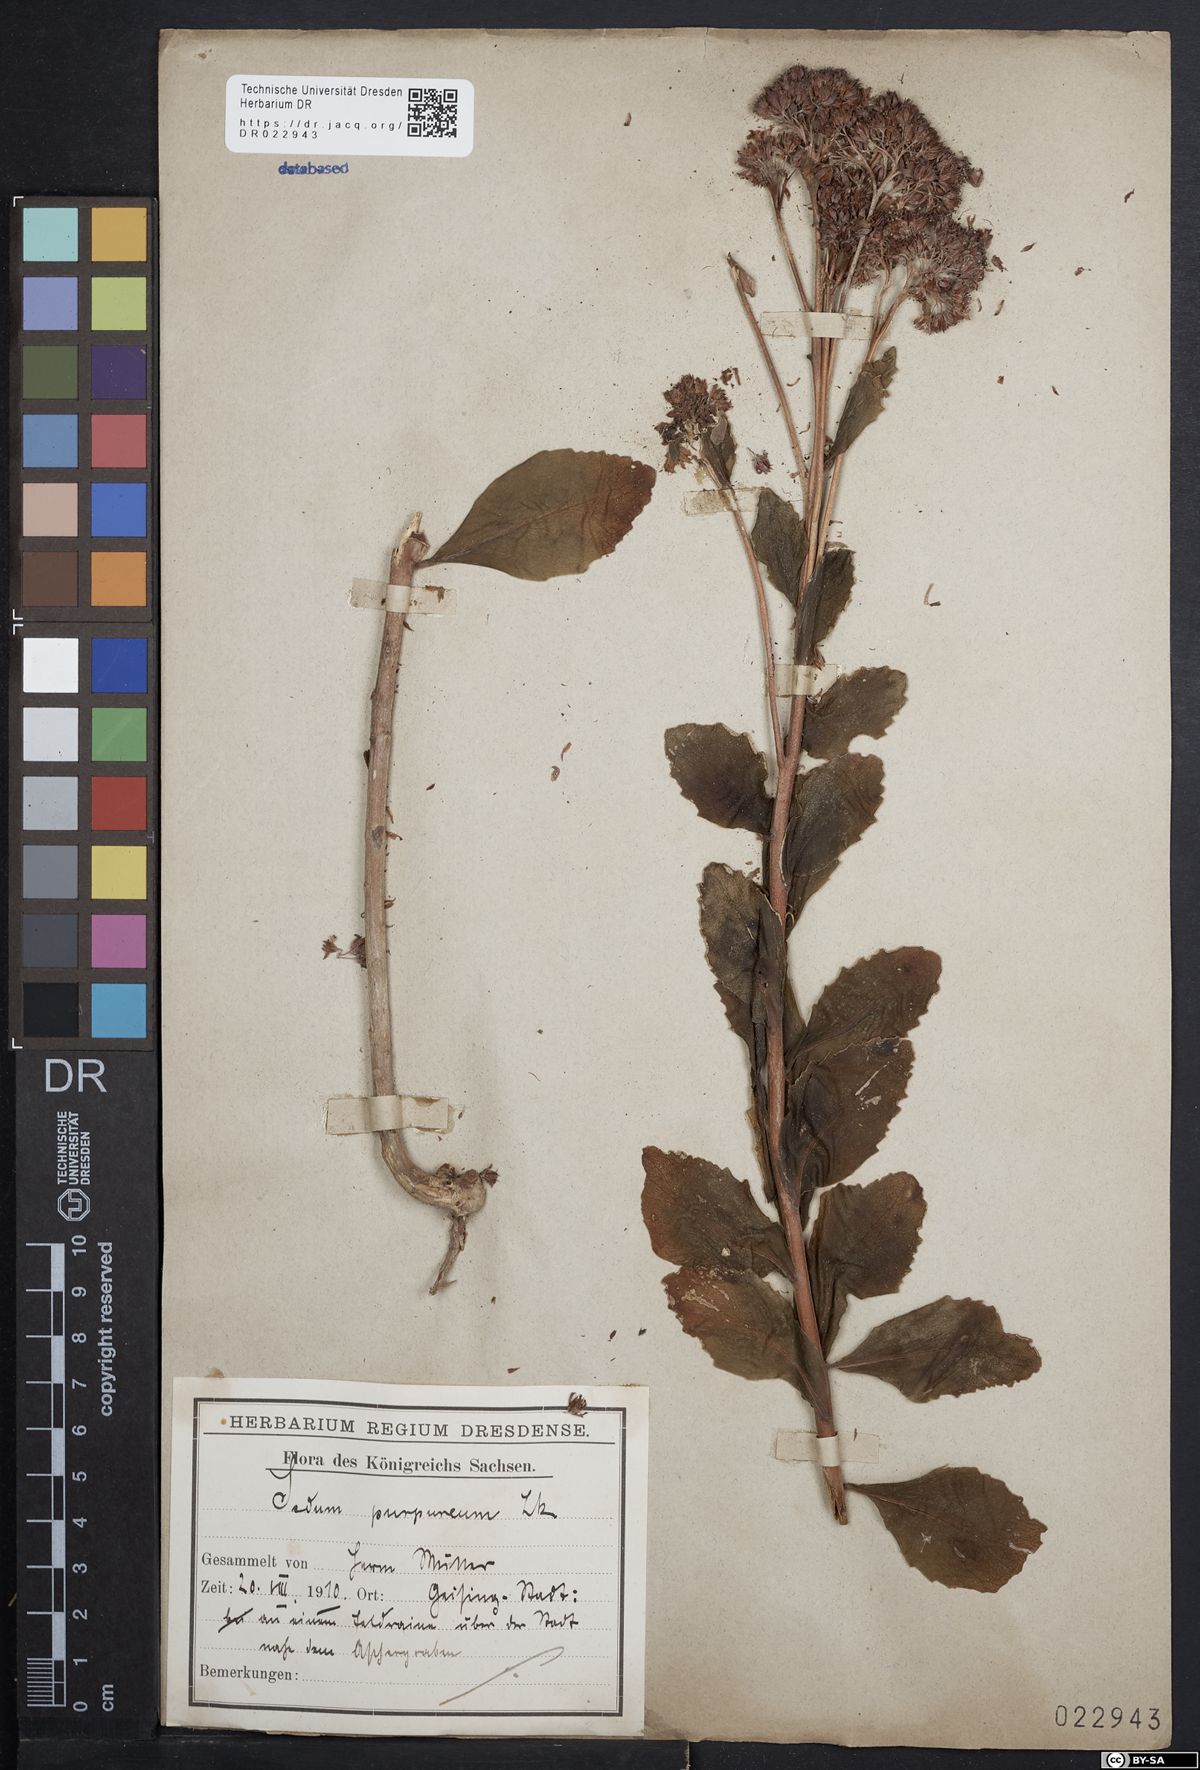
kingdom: Plantae
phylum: Tracheophyta
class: Magnoliopsida
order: Saxifragales
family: Crassulaceae
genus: Hylotelephium
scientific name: Hylotelephium telephium
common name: Live-forever
